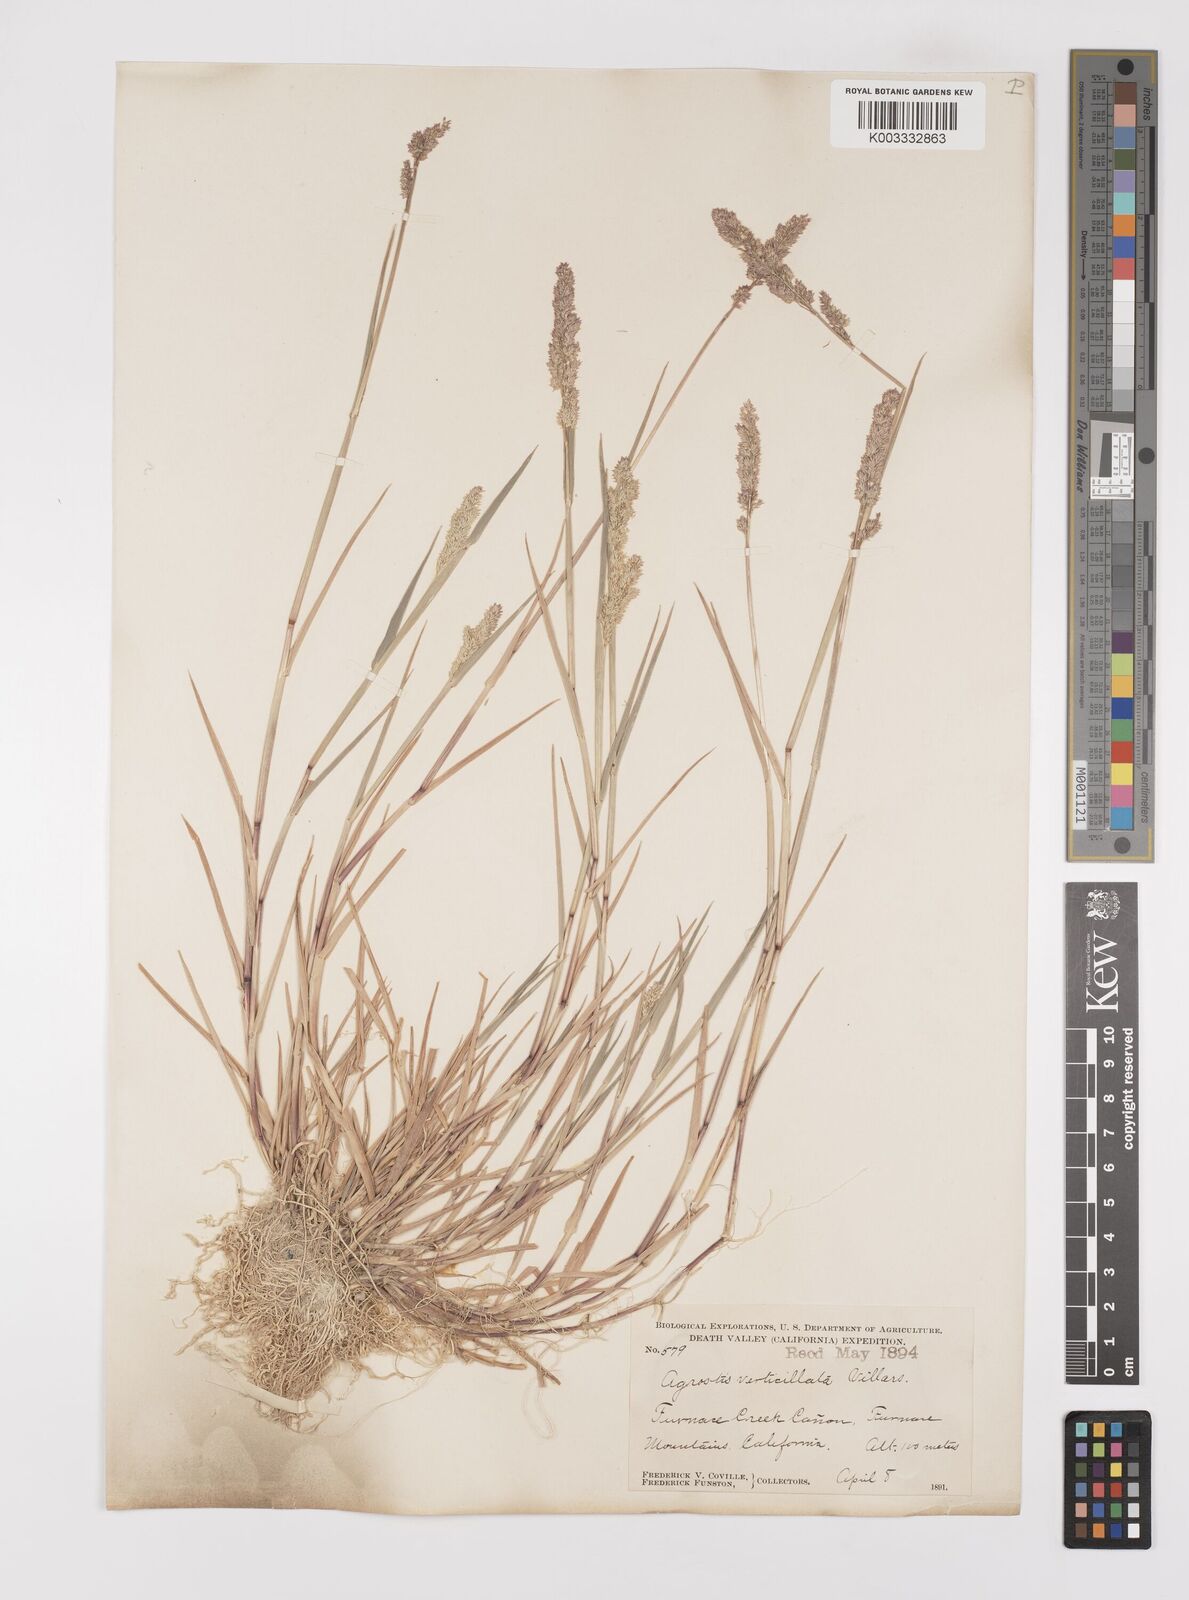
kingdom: Plantae
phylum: Tracheophyta
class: Liliopsida
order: Poales
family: Poaceae
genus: Polypogon
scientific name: Polypogon viridis
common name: Water bent
